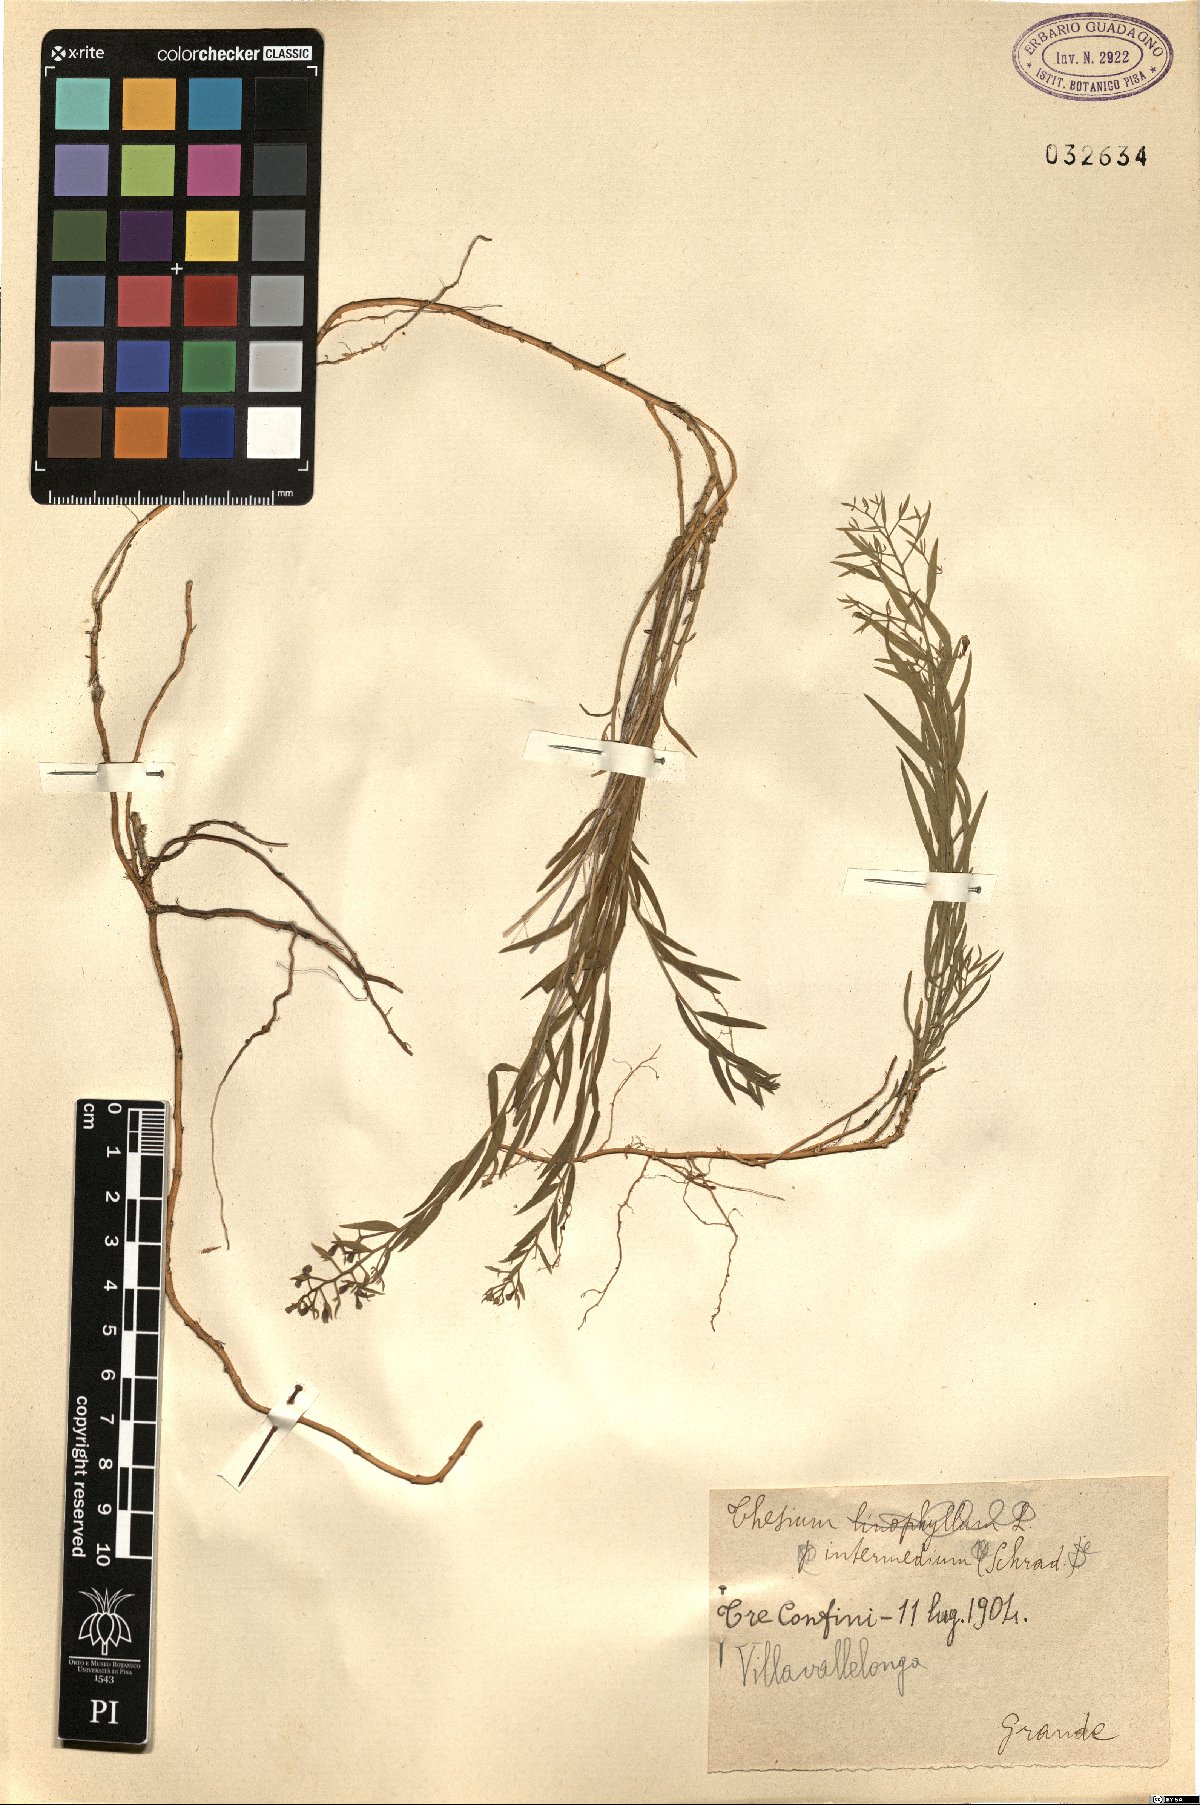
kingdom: Plantae
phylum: Tracheophyta
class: Magnoliopsida
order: Santalales
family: Thesiaceae
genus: Thesium
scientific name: Thesium linophyllon
